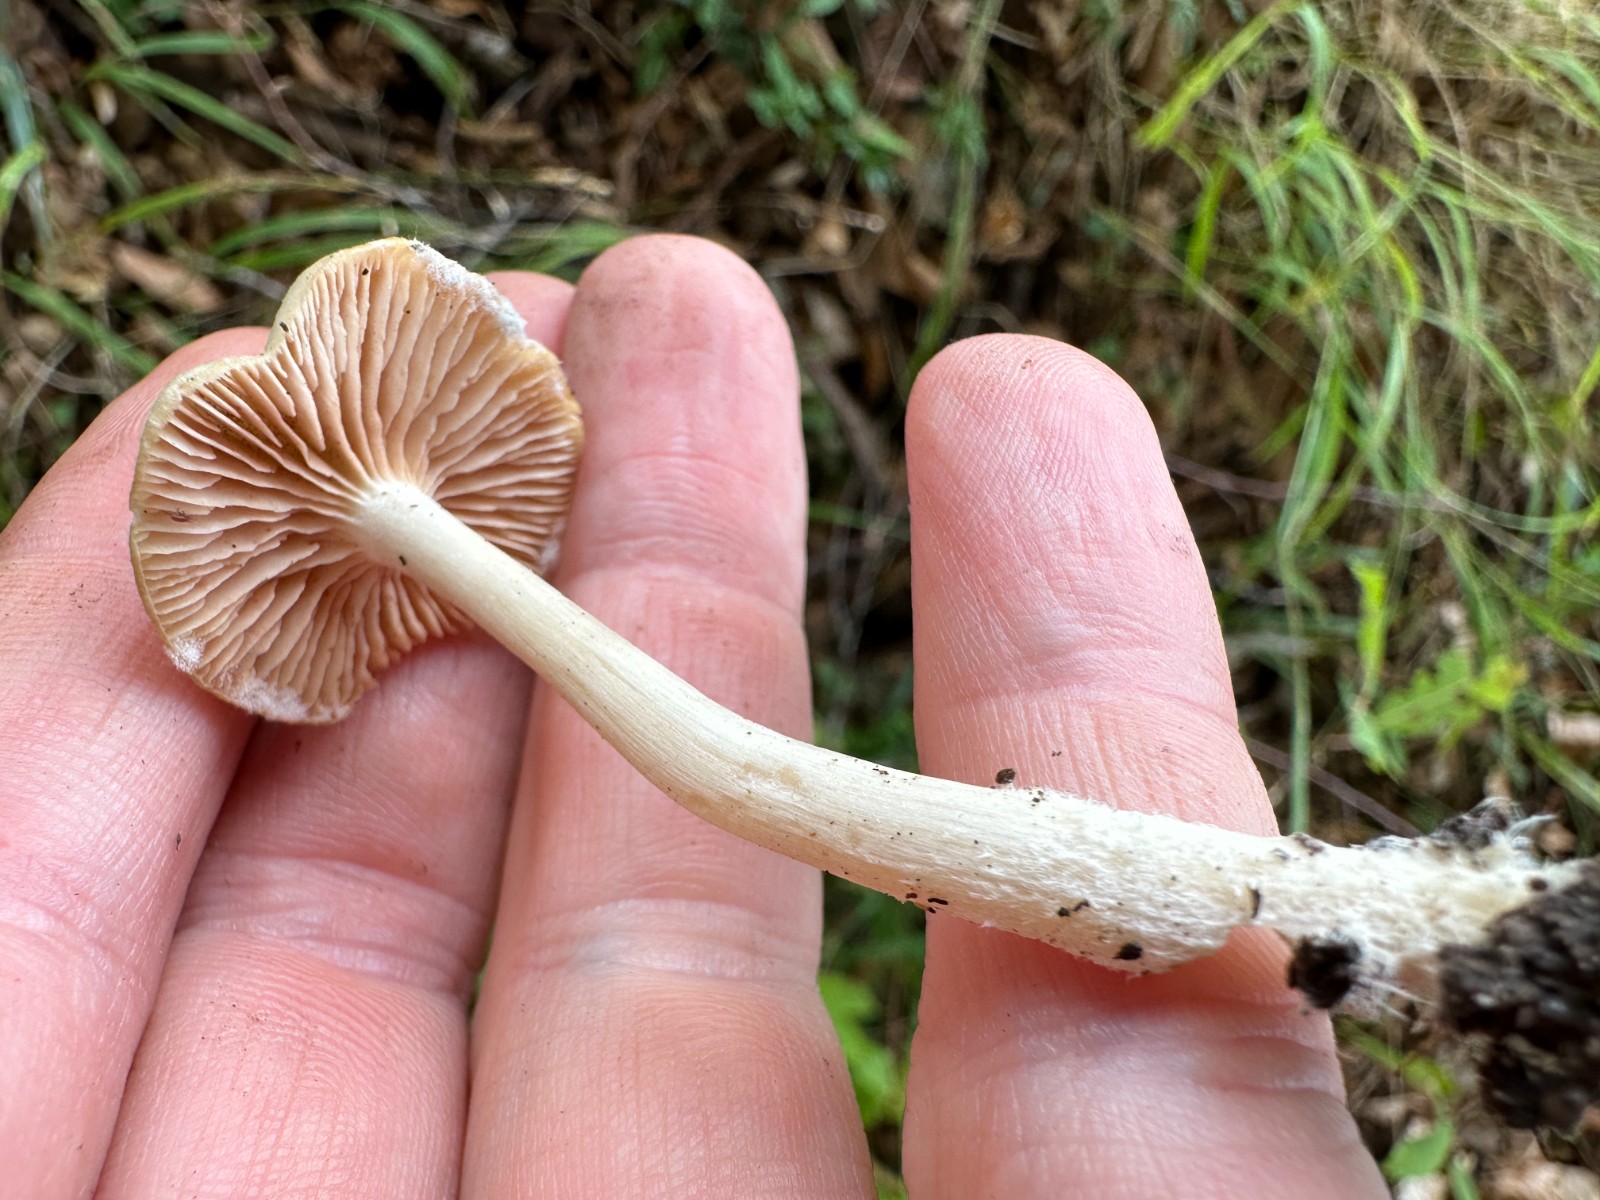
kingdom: Fungi
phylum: Basidiomycota
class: Agaricomycetes
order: Agaricales
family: Entolomataceae
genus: Entoloma
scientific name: Entoloma rhodopolium
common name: skov-rødblad
